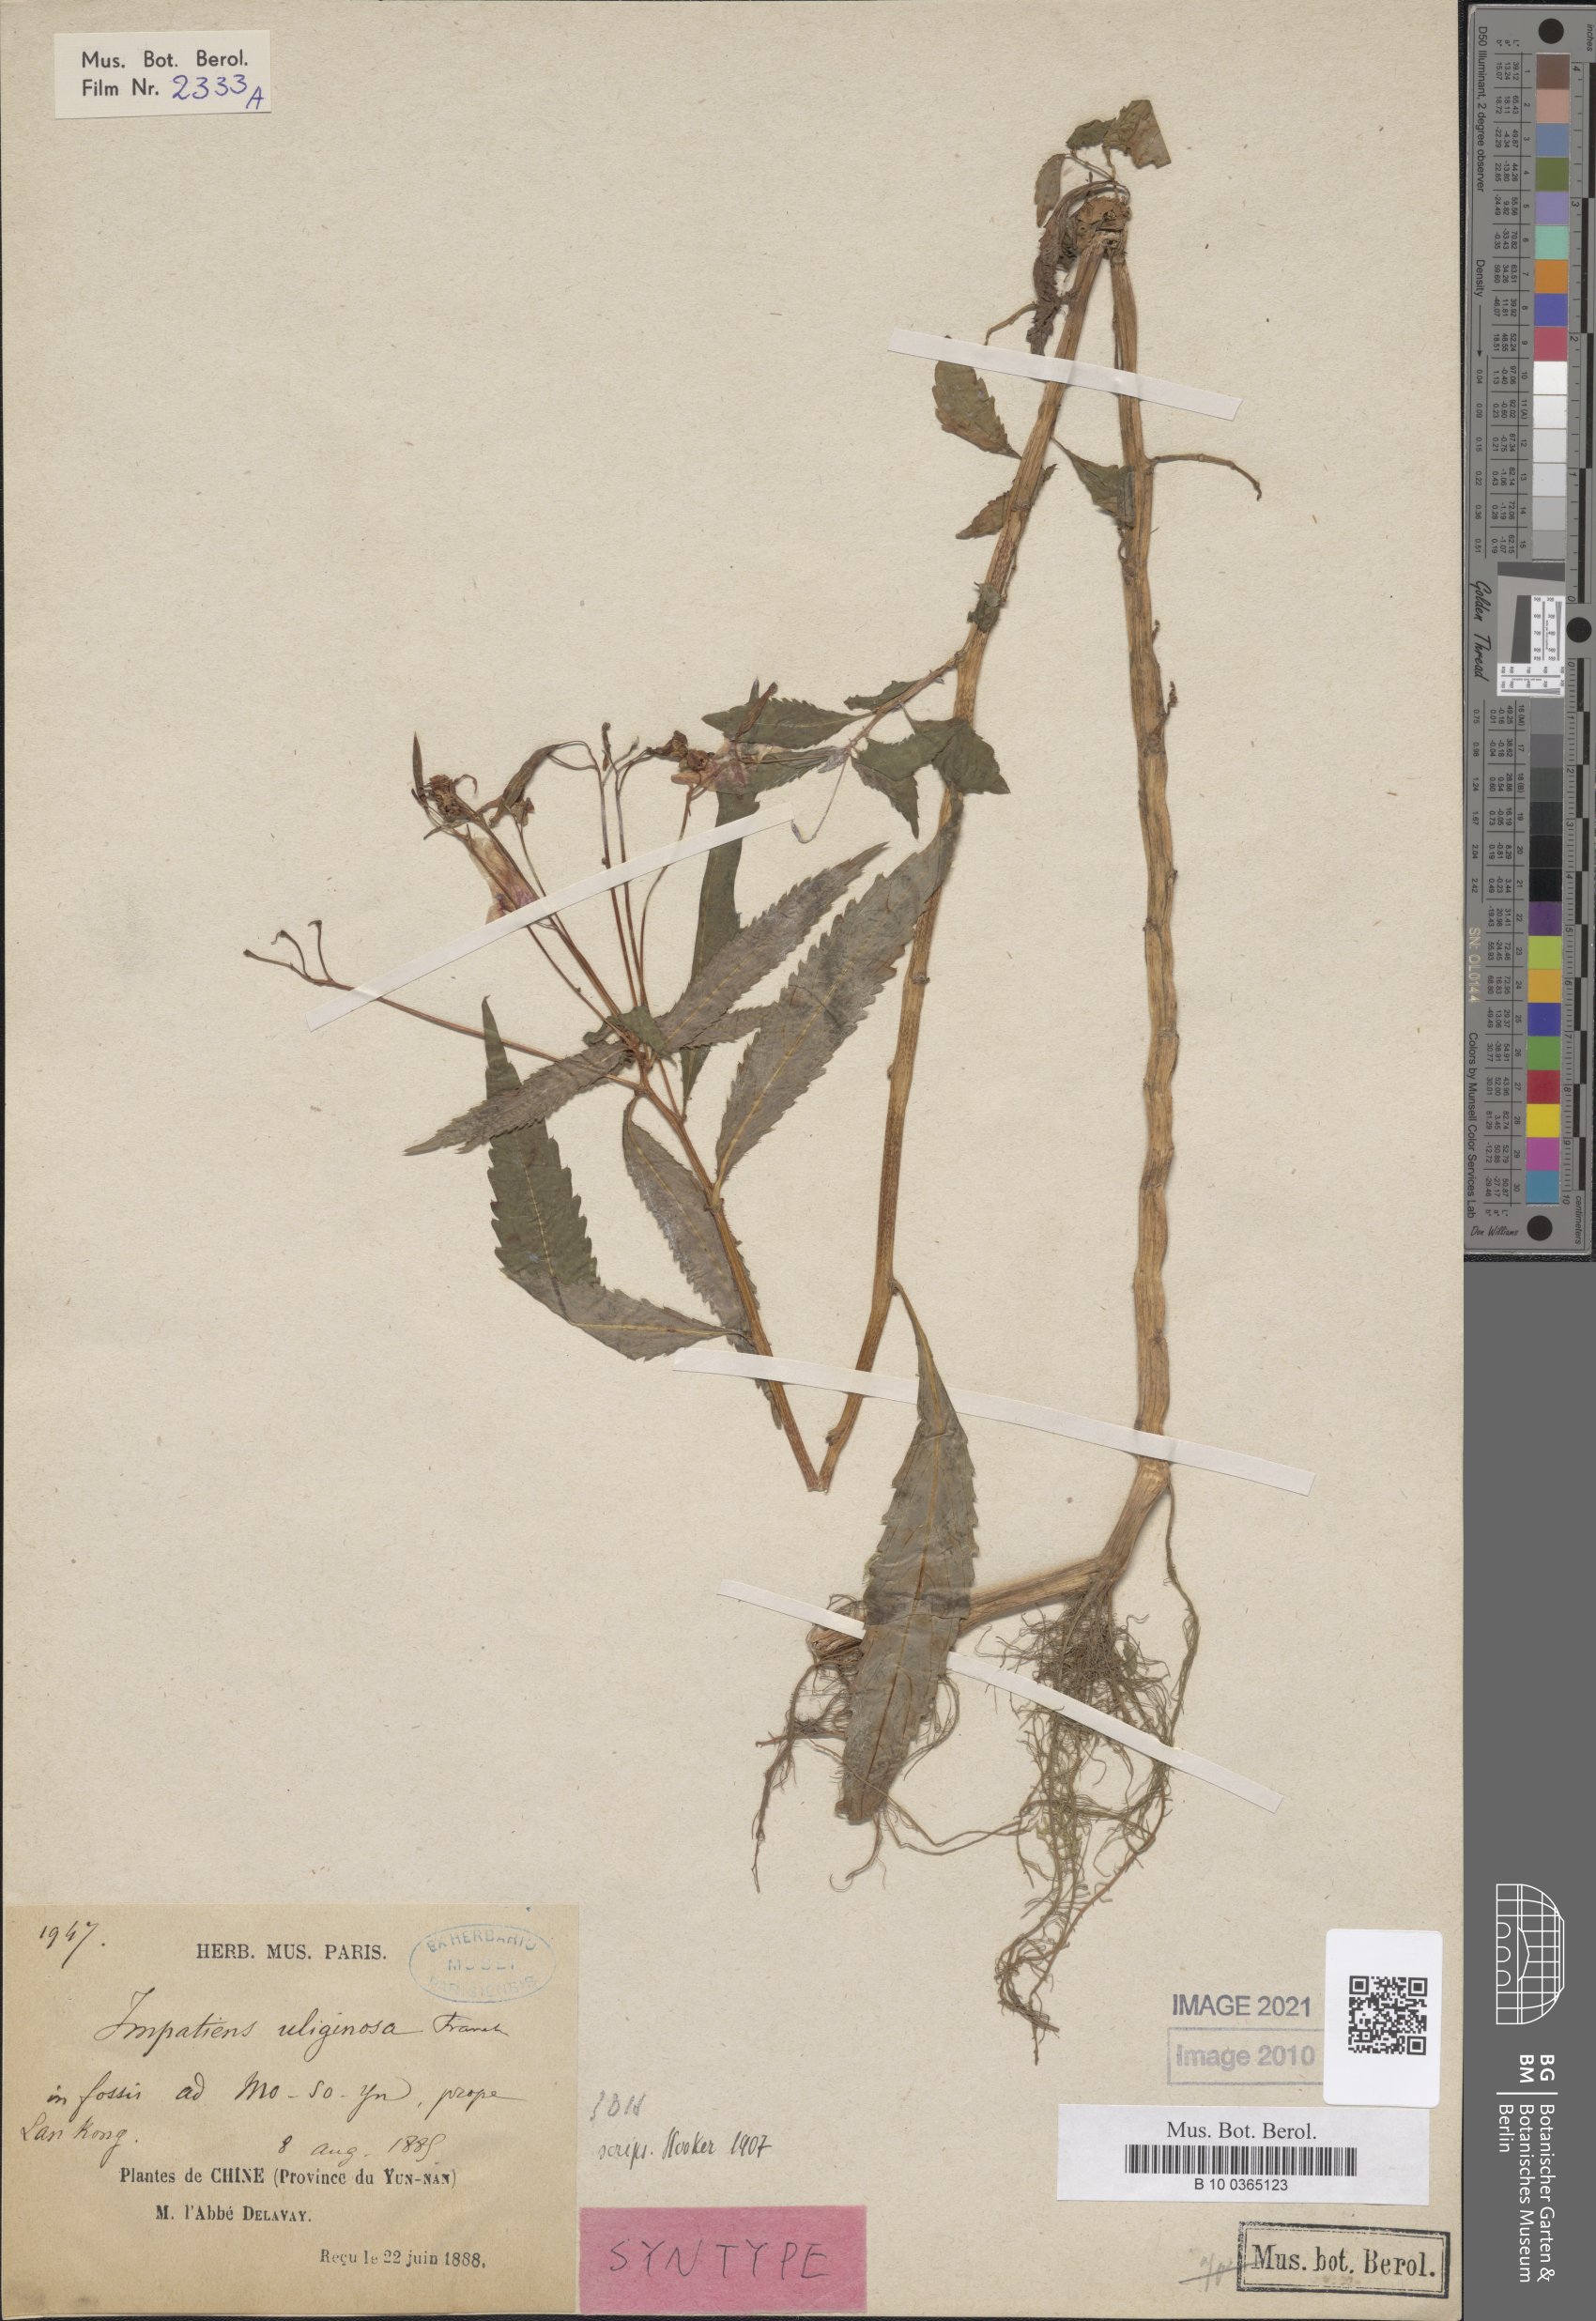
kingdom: Plantae
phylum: Tracheophyta
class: Magnoliopsida
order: Ericales
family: Balsaminaceae
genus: Impatiens
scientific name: Impatiens uliginosa
